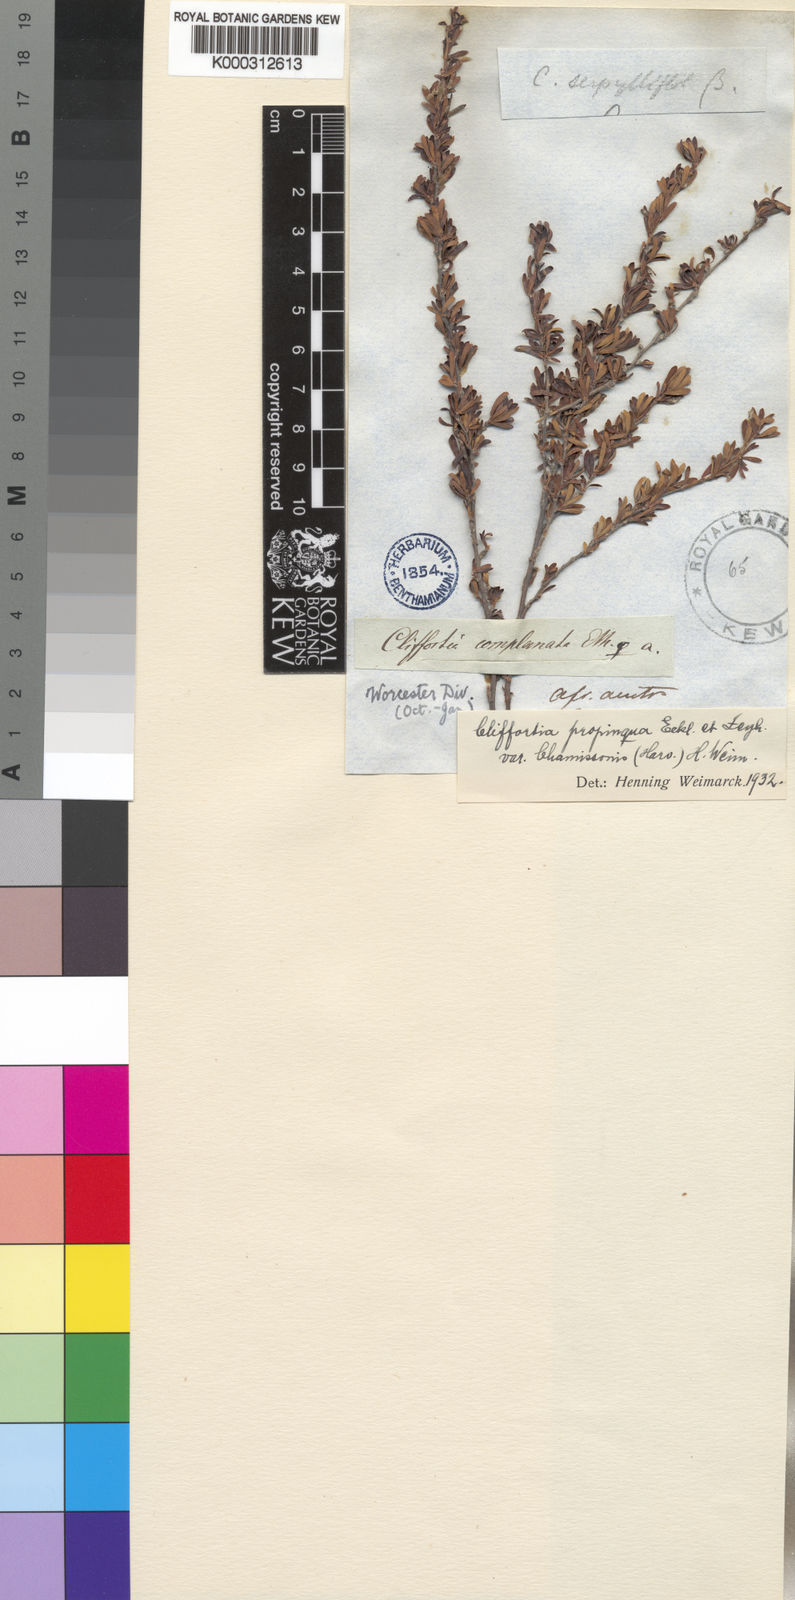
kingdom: Plantae
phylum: Tracheophyta
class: Magnoliopsida
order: Rosales
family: Rosaceae
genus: Cliffortia
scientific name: Cliffortia
